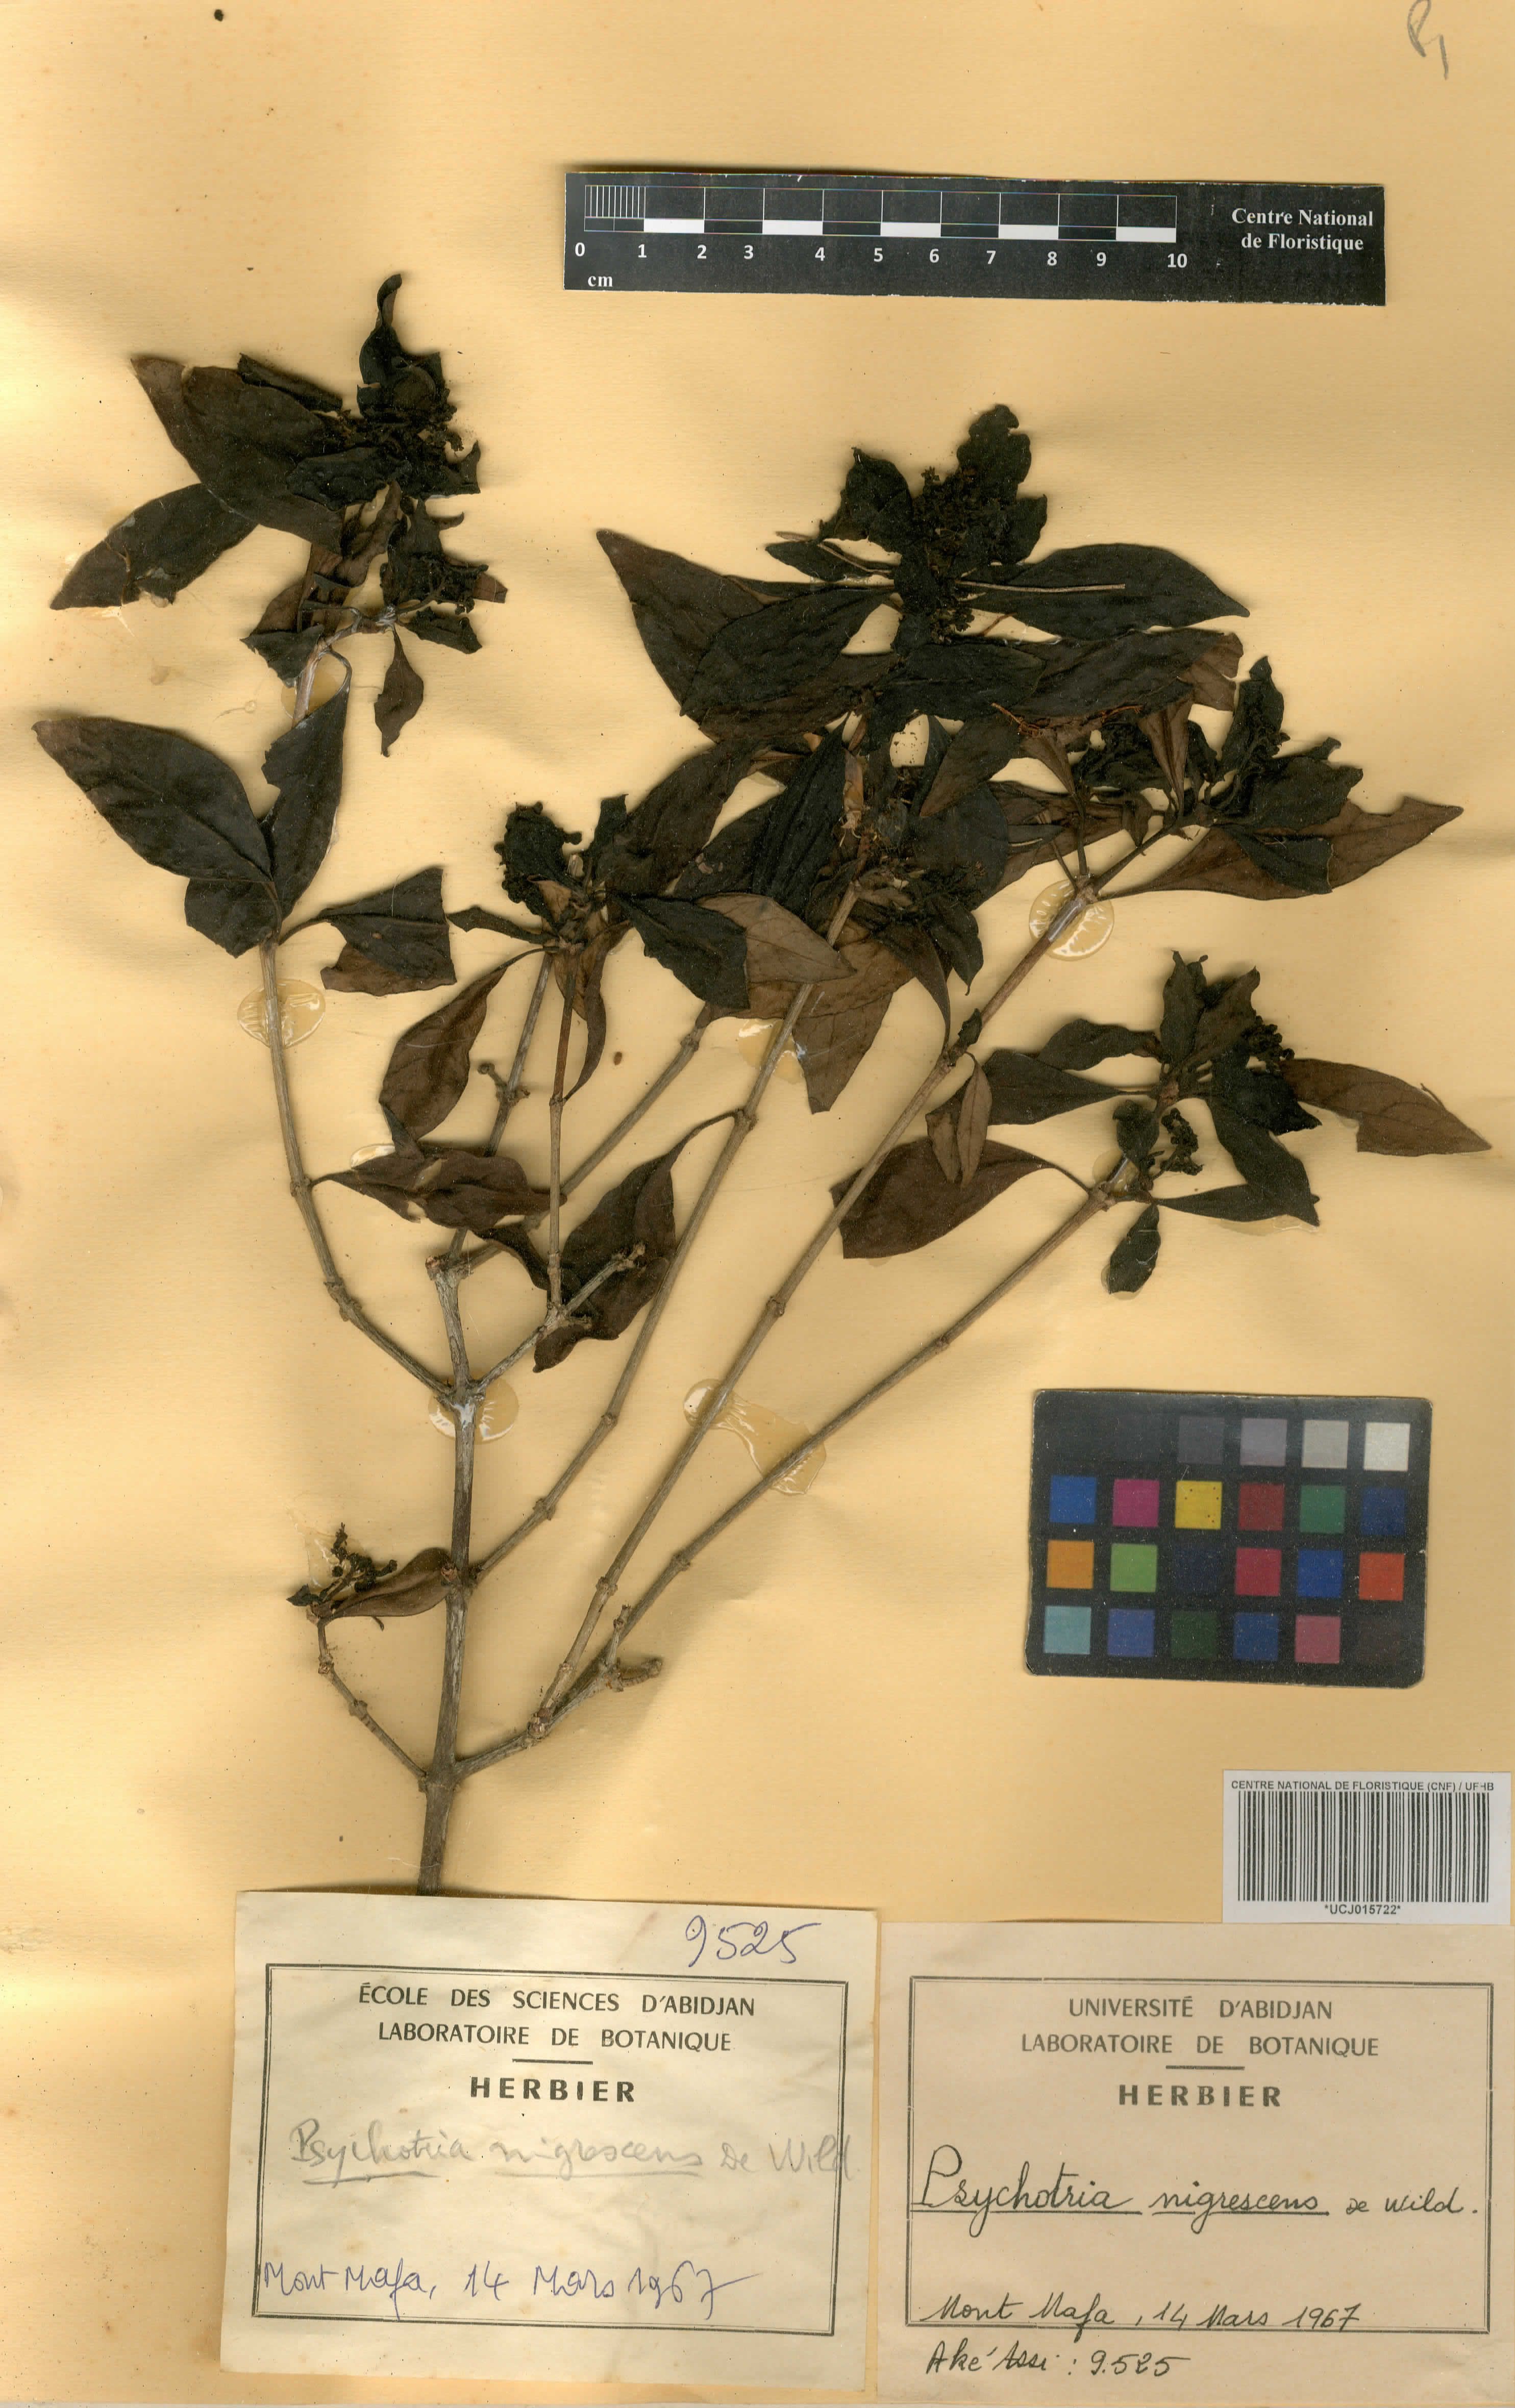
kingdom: Plantae
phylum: Tracheophyta
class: Magnoliopsida
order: Gentianales
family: Rubiaceae
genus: Psychotria
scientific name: Psychotria nigrescens
